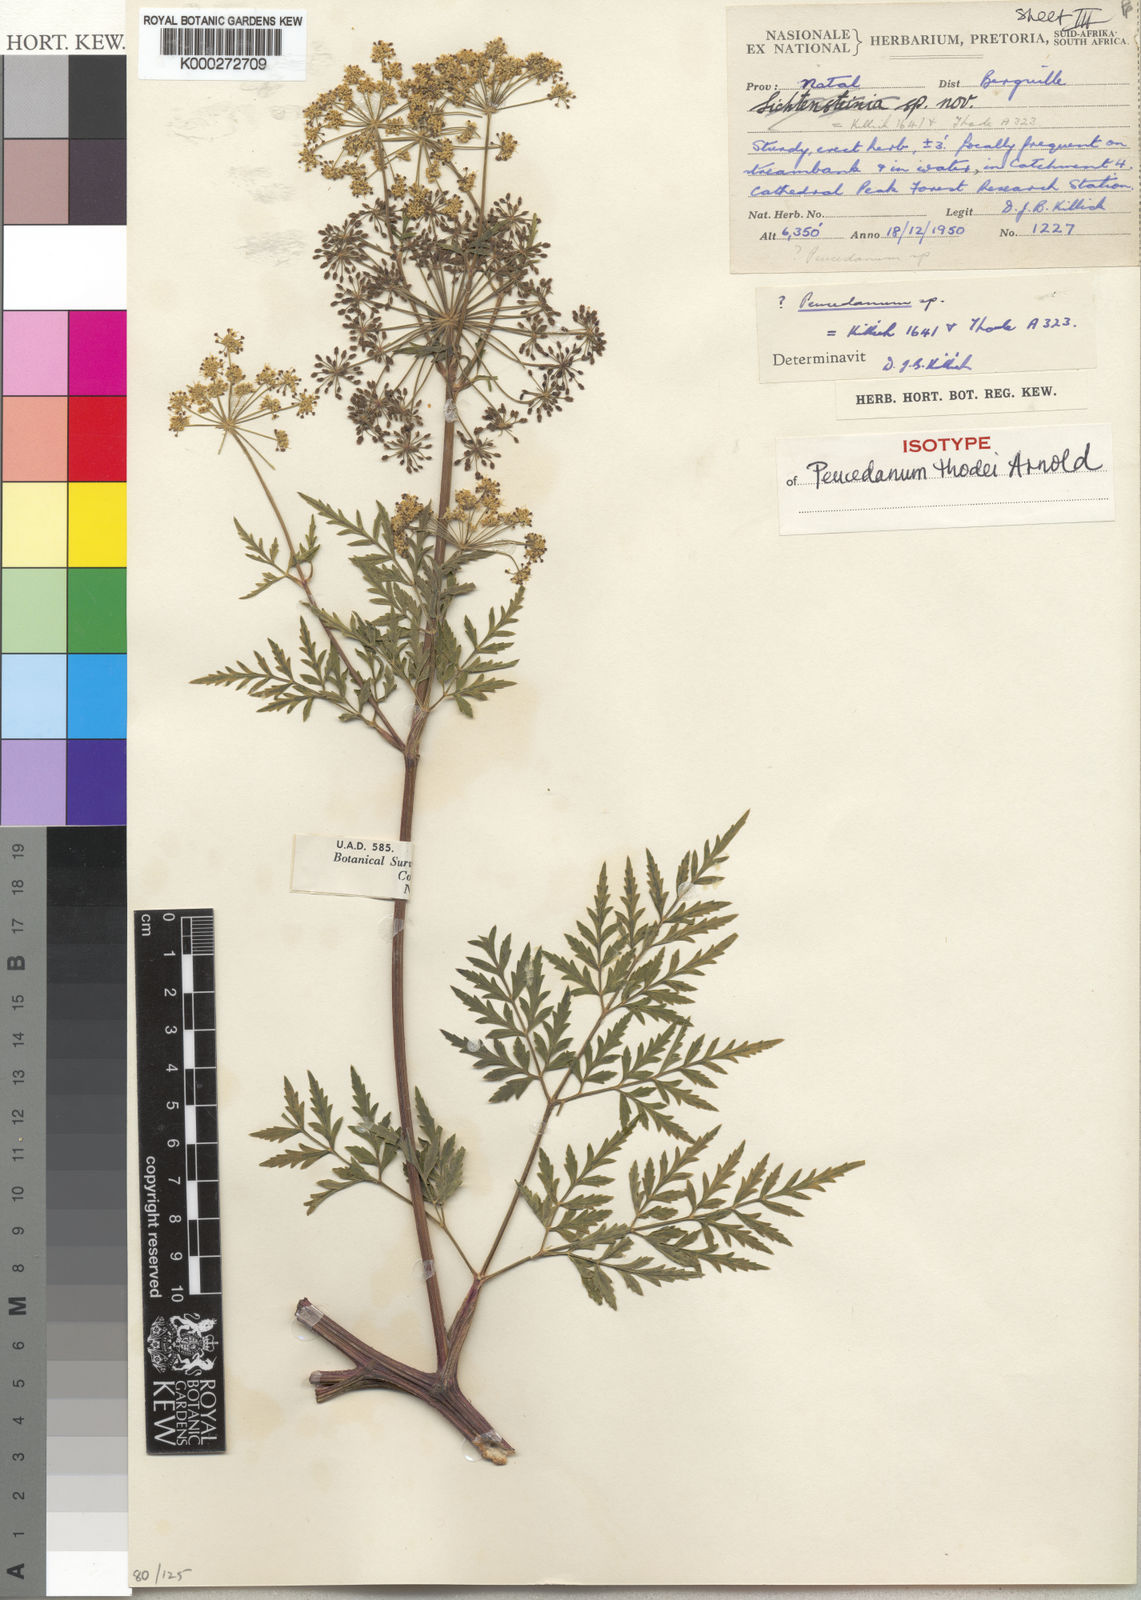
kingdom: Plantae
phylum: Tracheophyta
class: Magnoliopsida
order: Apiales
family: Apiaceae
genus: Anethum
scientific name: Anethum
